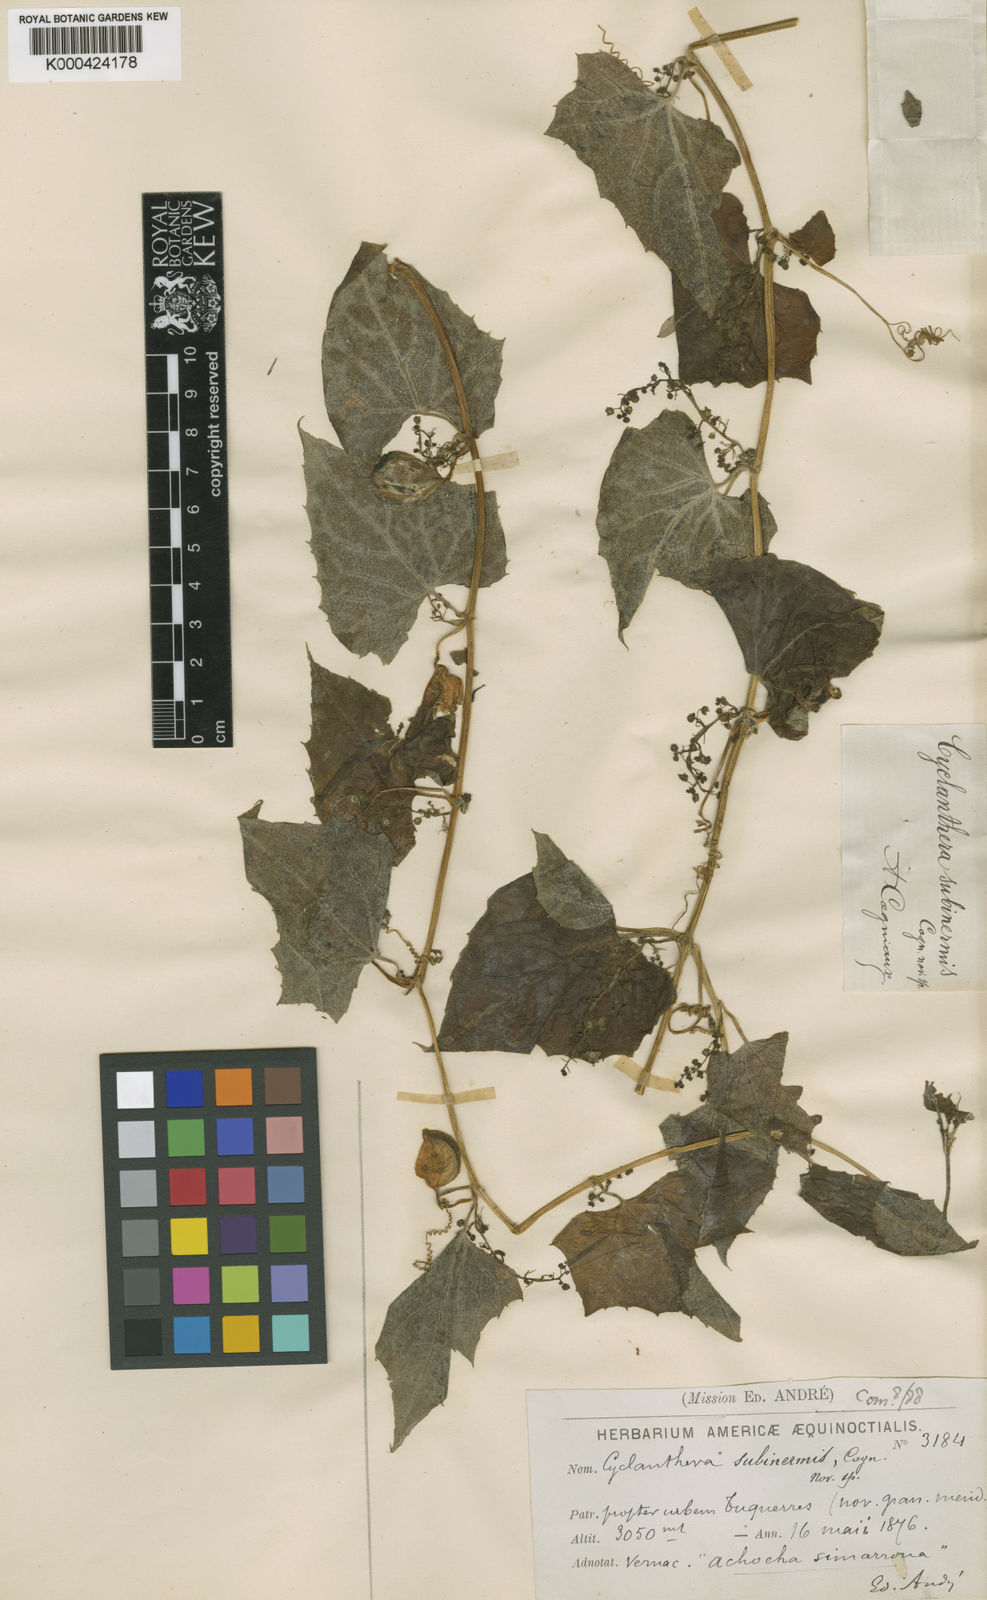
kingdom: Plantae
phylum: Tracheophyta
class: Magnoliopsida
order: Cucurbitales
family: Cucurbitaceae
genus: Cyclanthera
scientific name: Cyclanthera brachybotrys
